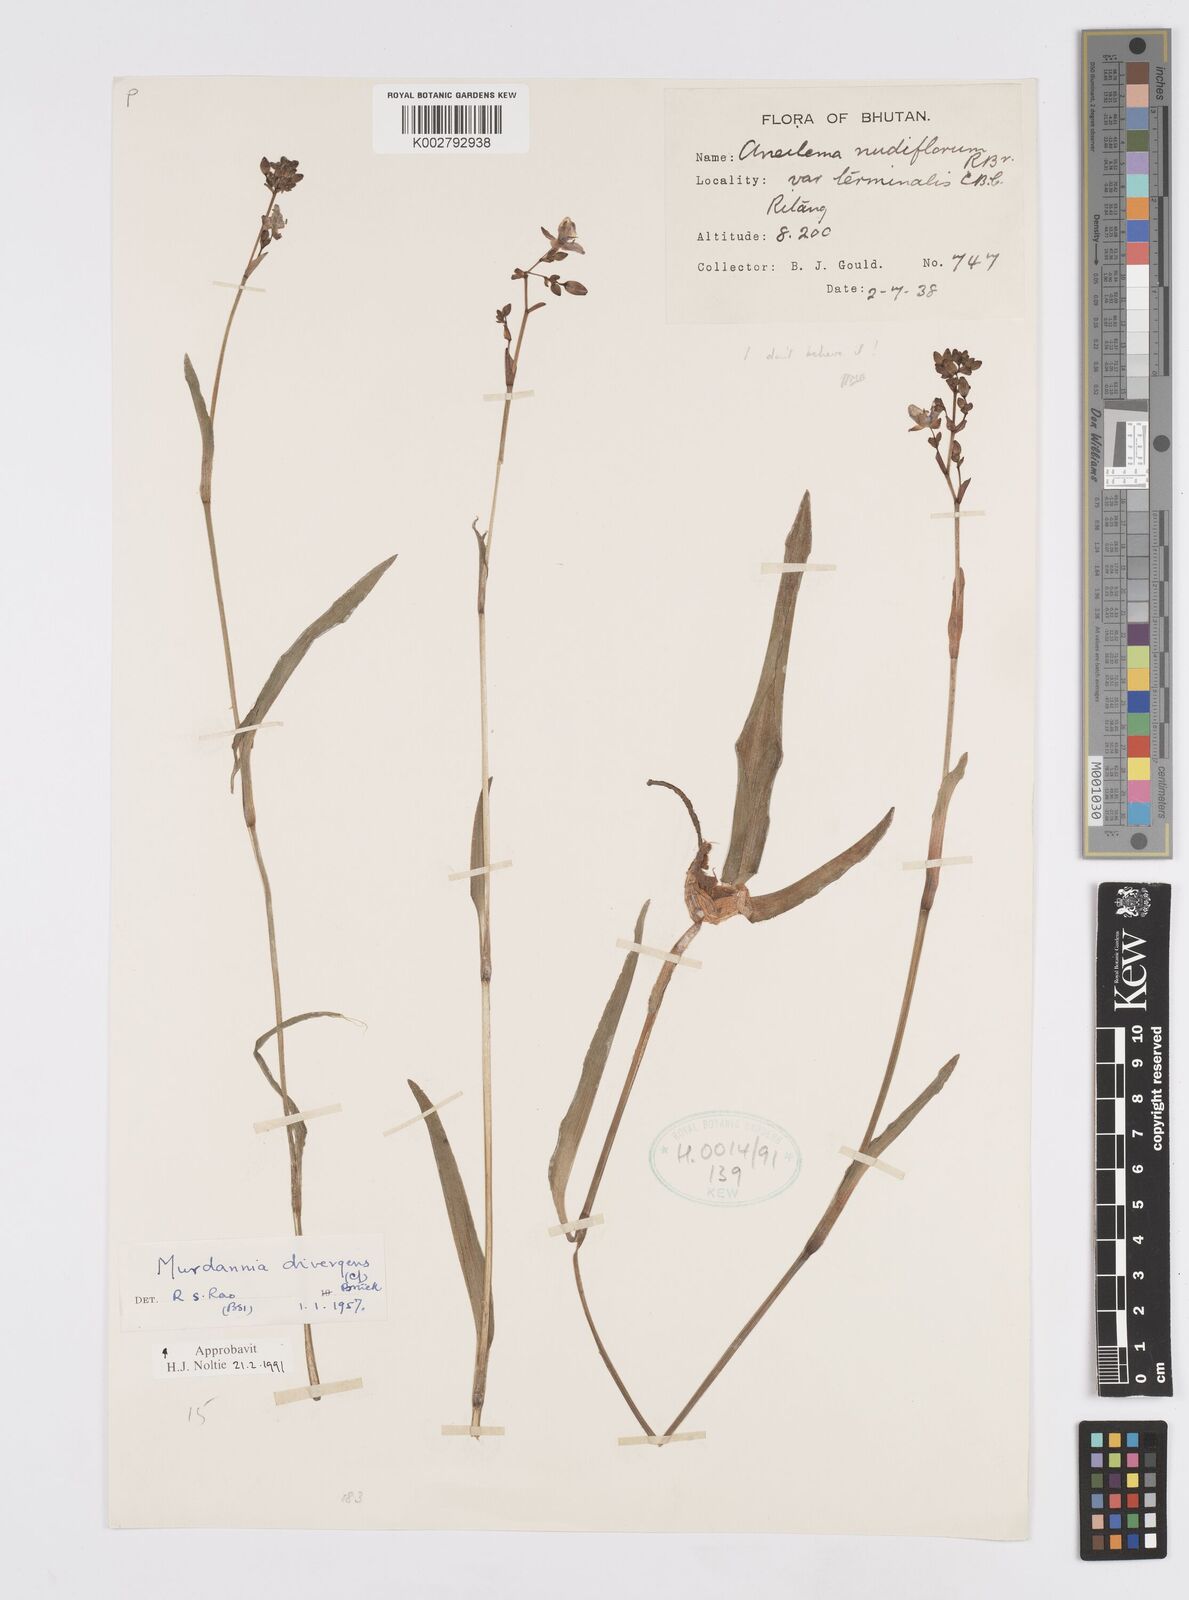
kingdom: Plantae
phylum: Tracheophyta
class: Liliopsida
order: Commelinales
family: Commelinaceae
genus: Murdannia
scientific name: Murdannia divergens
